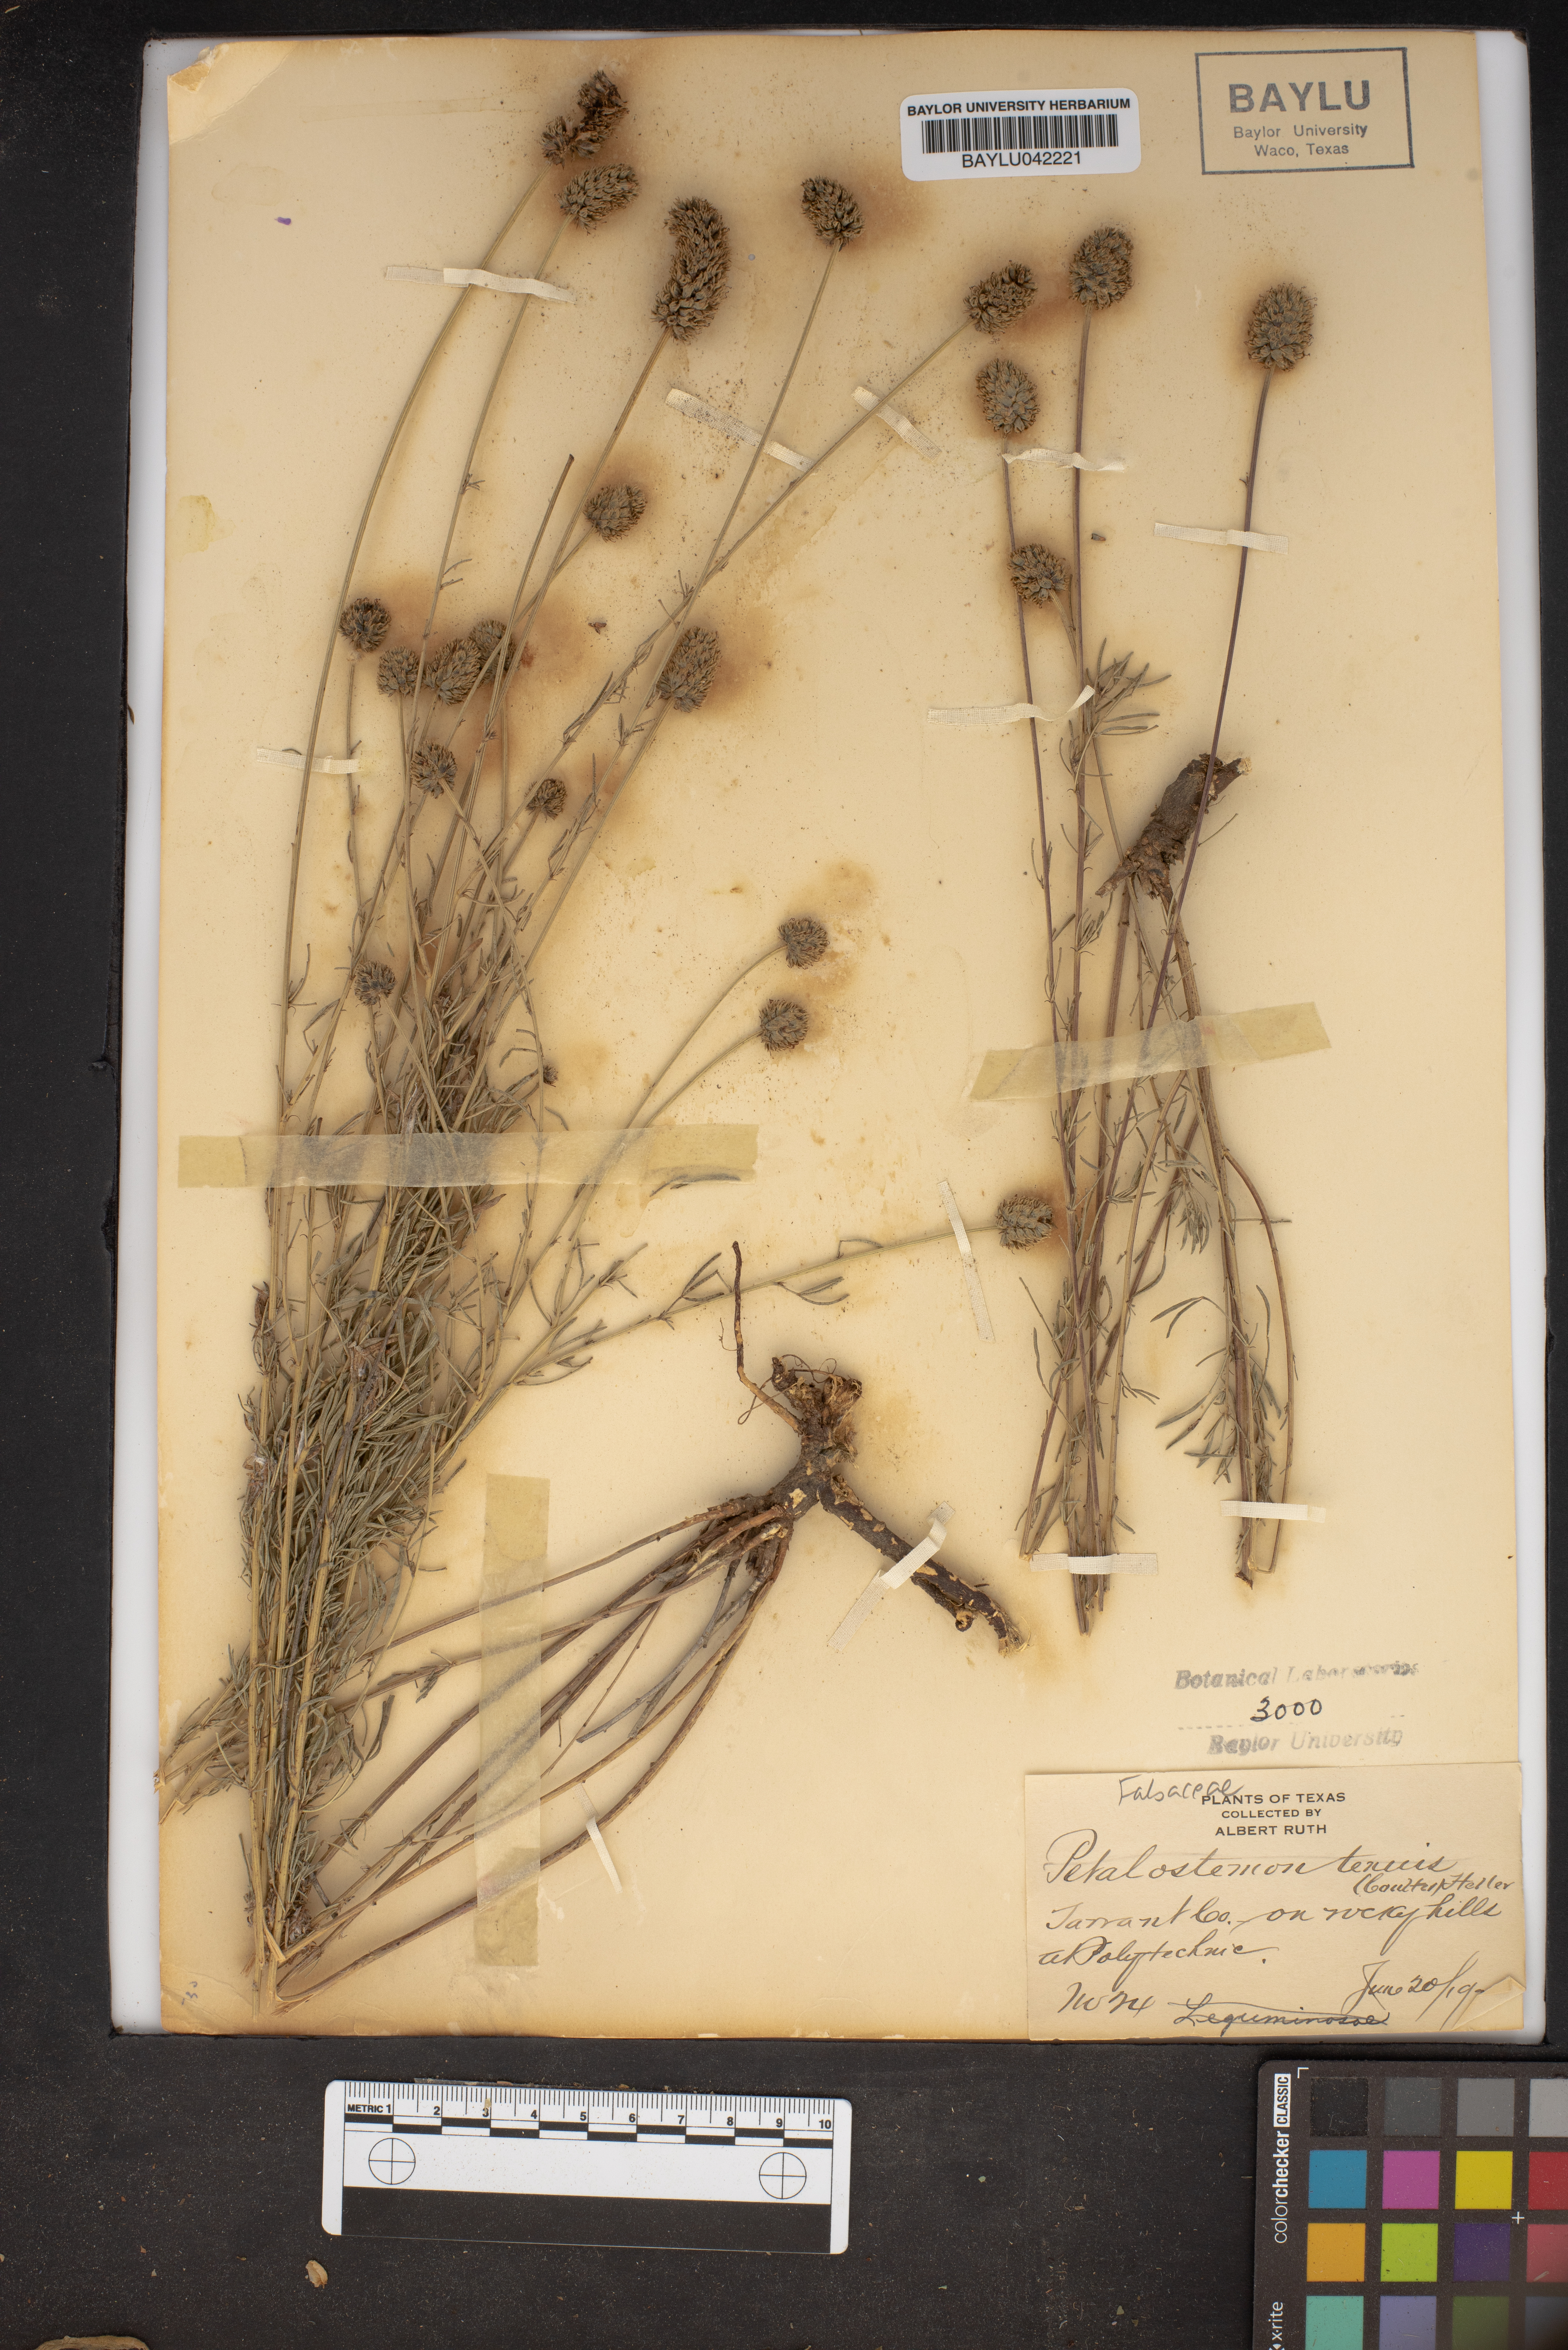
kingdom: Plantae
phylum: Tracheophyta
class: Magnoliopsida
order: Fabales
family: Fabaceae
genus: Dalea
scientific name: Dalea tenuis
